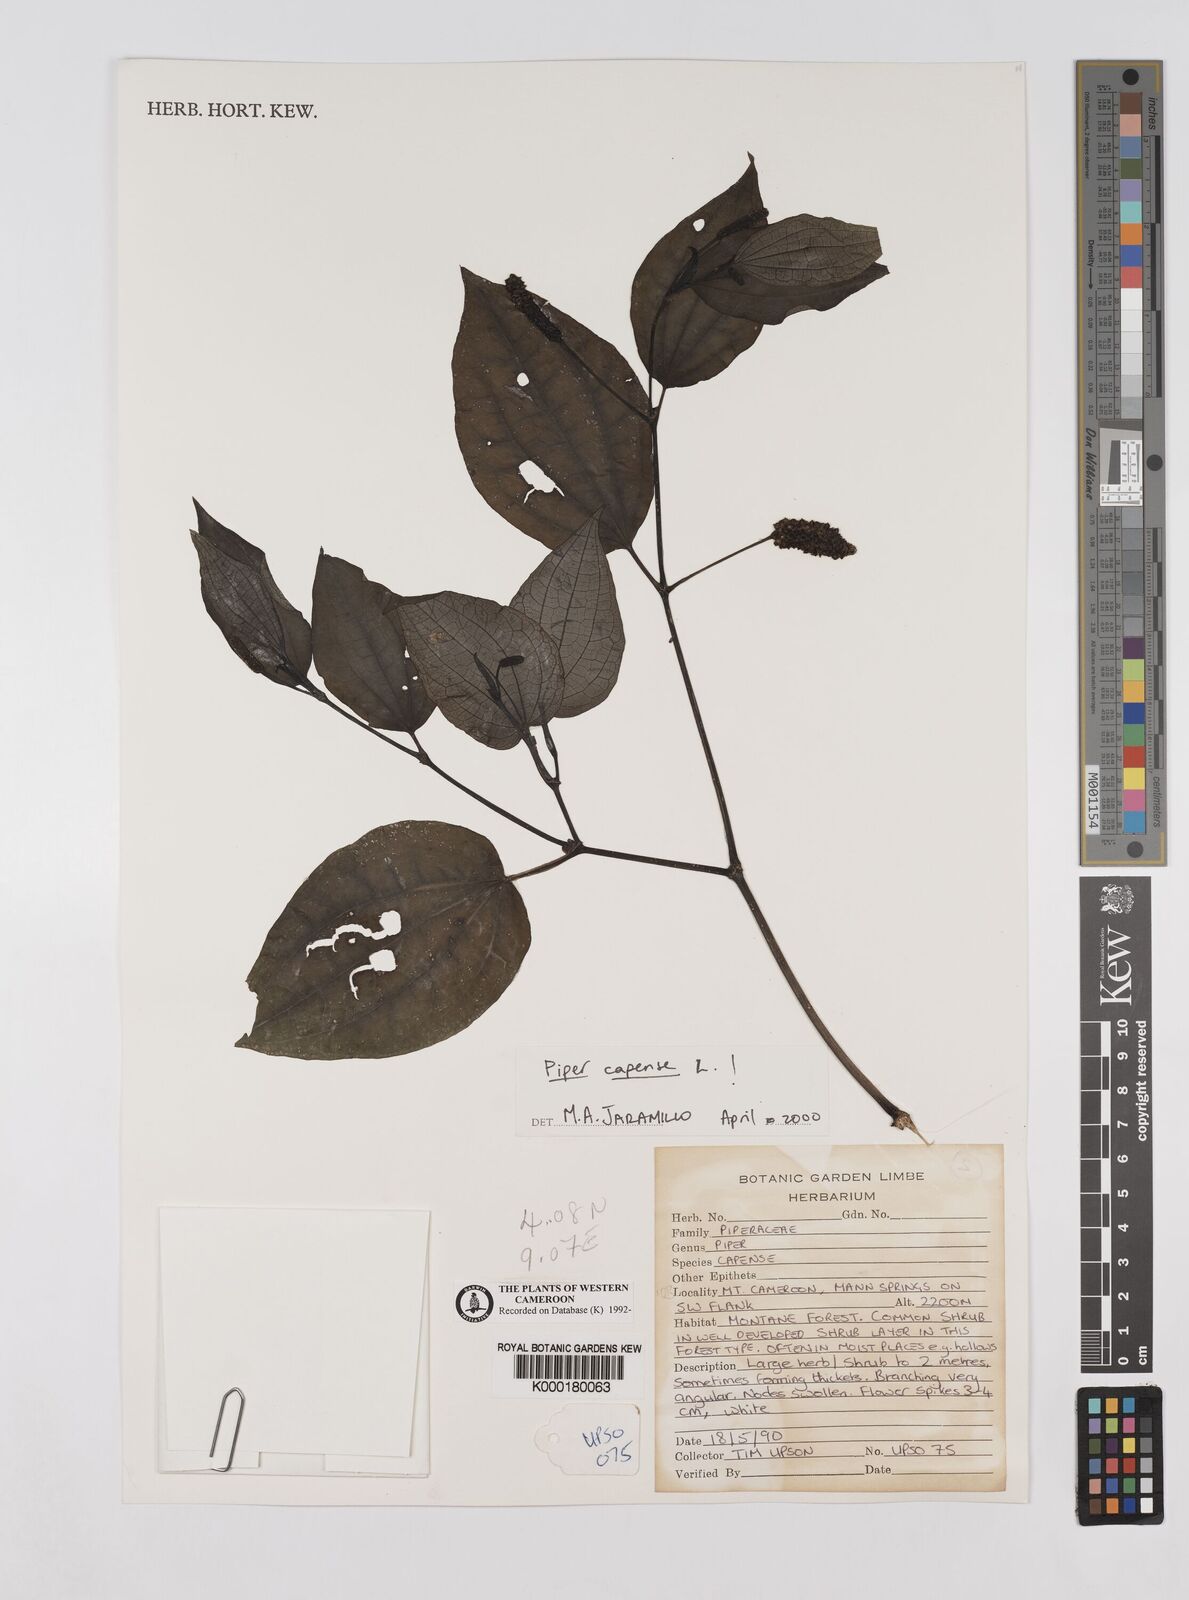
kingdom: Plantae
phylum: Tracheophyta
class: Magnoliopsida
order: Piperales
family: Piperaceae
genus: Piper
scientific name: Piper capense
